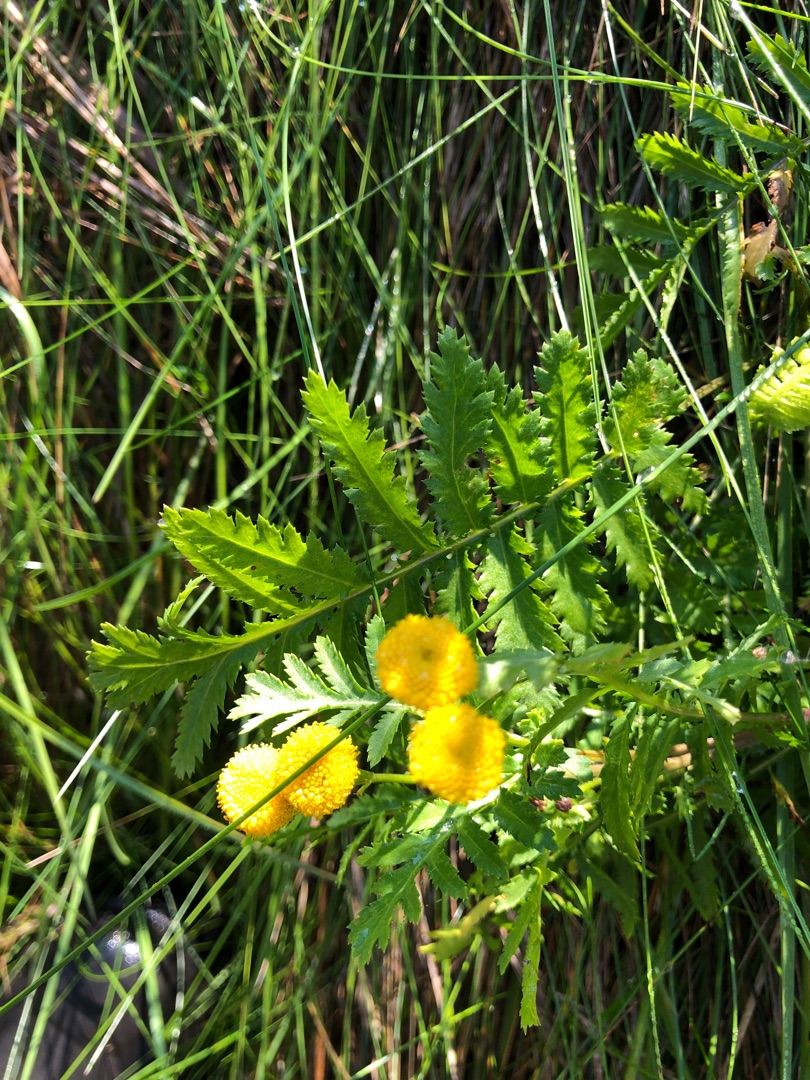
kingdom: Plantae
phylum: Tracheophyta
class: Magnoliopsida
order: Asterales
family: Asteraceae
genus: Tanacetum
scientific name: Tanacetum vulgare
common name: Rejnfan
